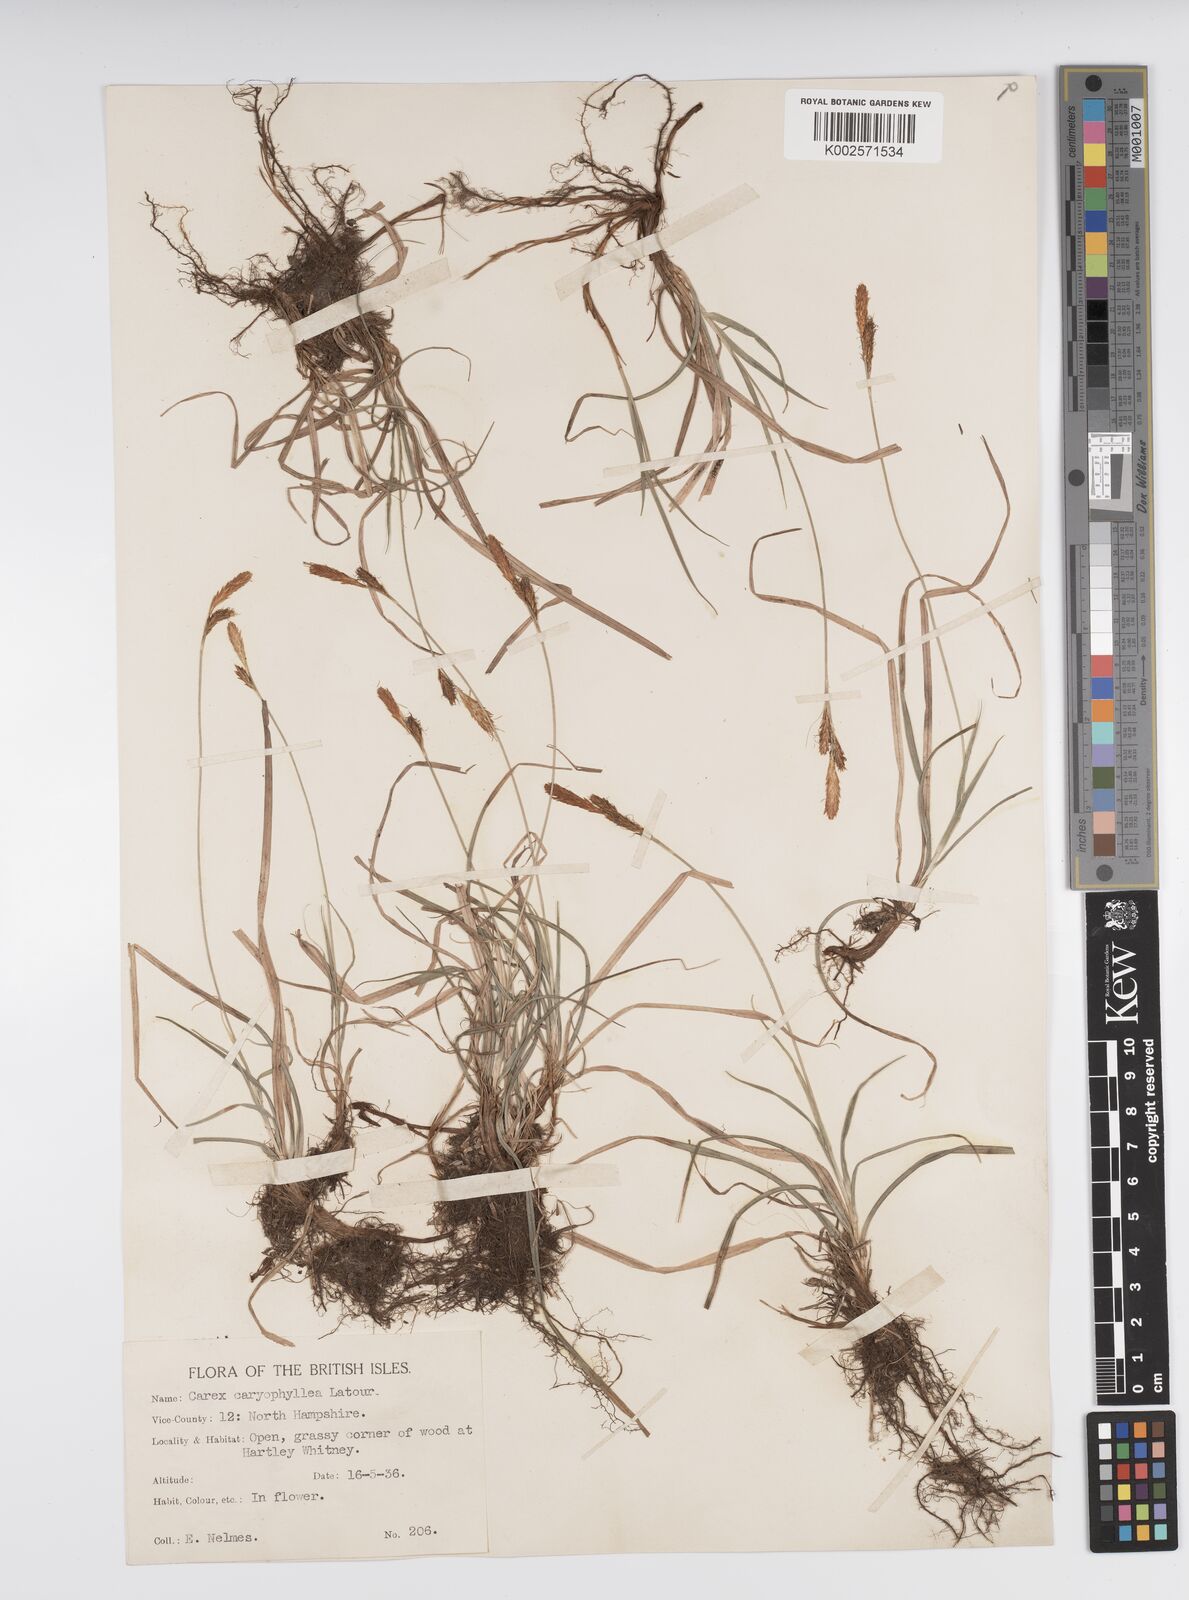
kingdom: Plantae
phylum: Tracheophyta
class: Liliopsida
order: Poales
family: Cyperaceae
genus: Carex
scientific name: Carex caryophyllea
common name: Spring sedge
